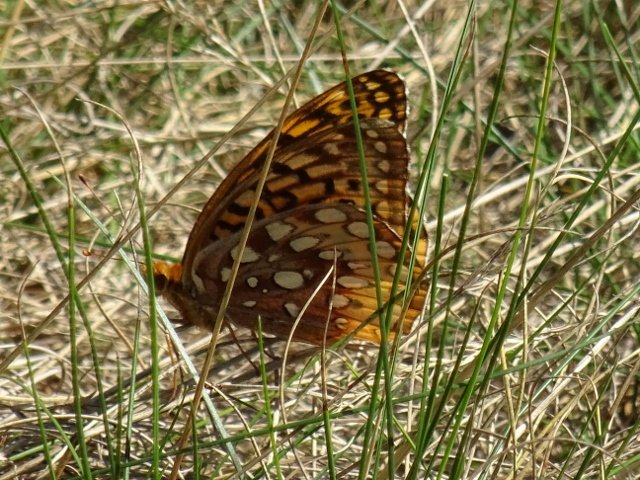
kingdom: Animalia
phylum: Arthropoda
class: Insecta
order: Lepidoptera
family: Nymphalidae
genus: Speyeria
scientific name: Speyeria cybele
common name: Great Spangled Fritillary
